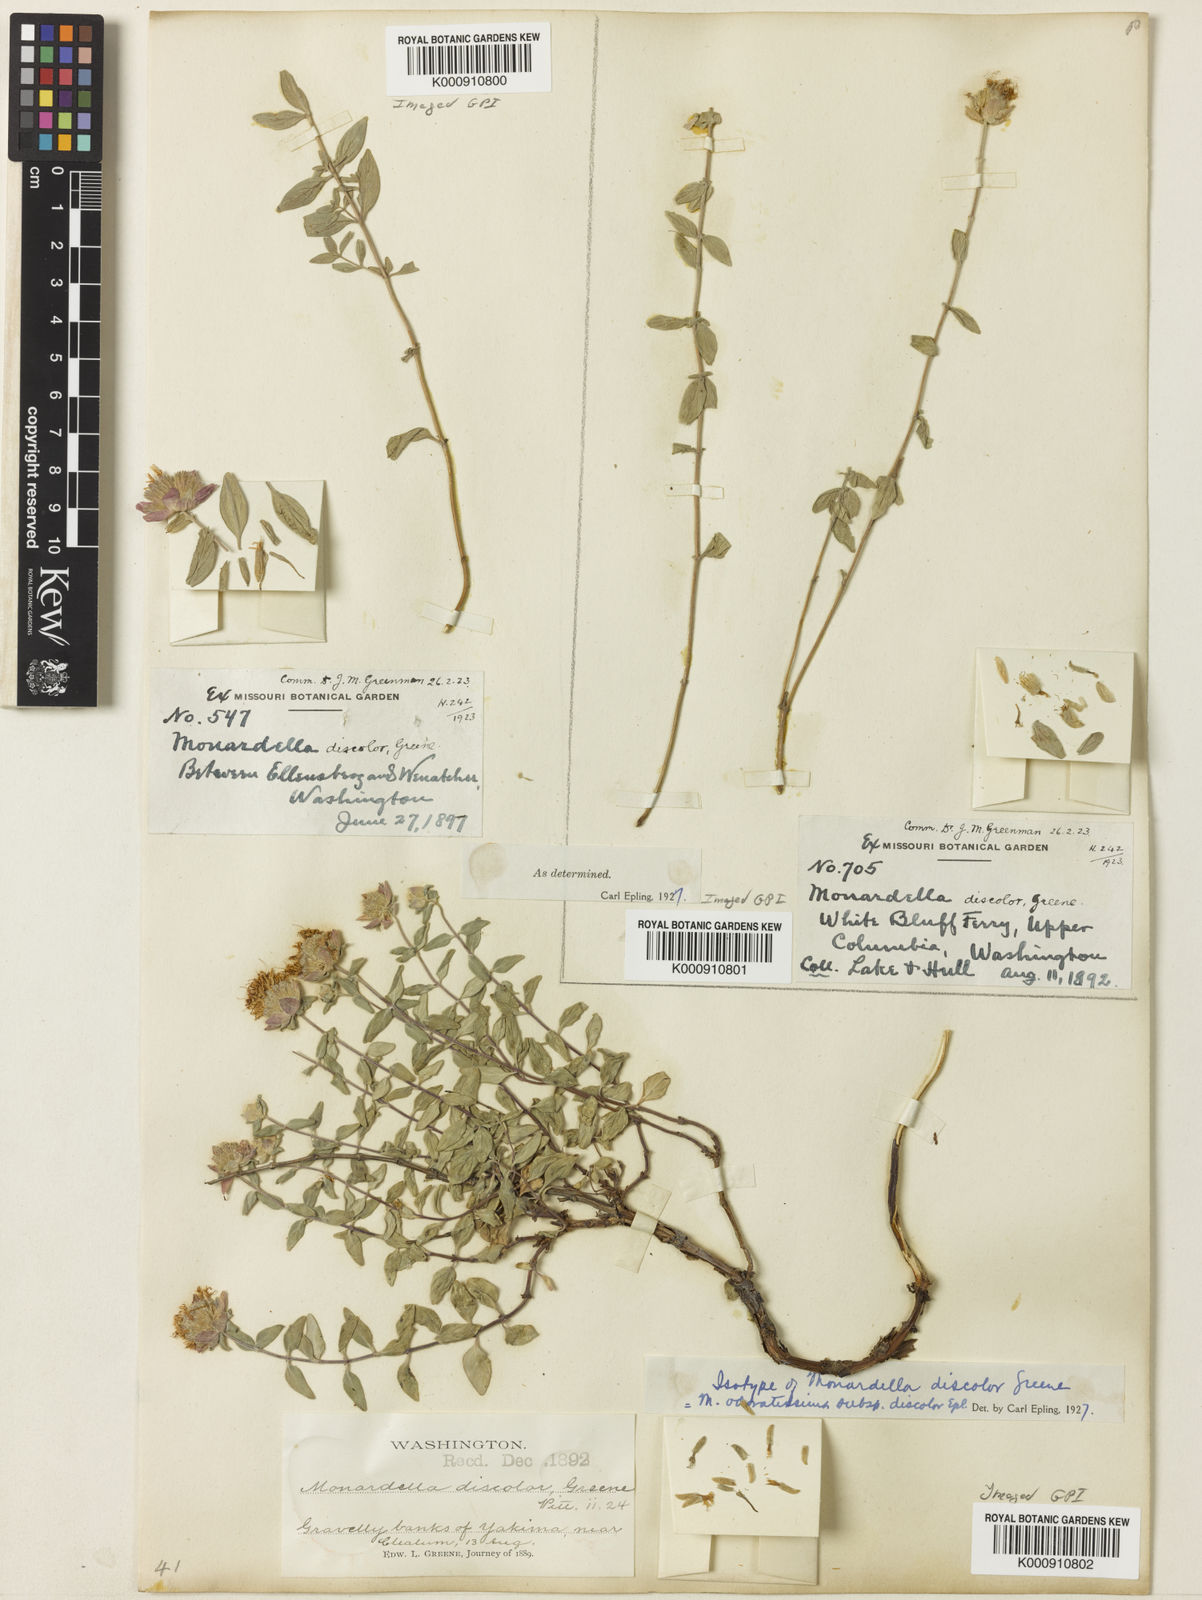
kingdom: Plantae
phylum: Tracheophyta
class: Magnoliopsida
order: Lamiales
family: Lamiaceae
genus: Monardella
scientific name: Monardella odoratissima
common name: Pacific monardella
